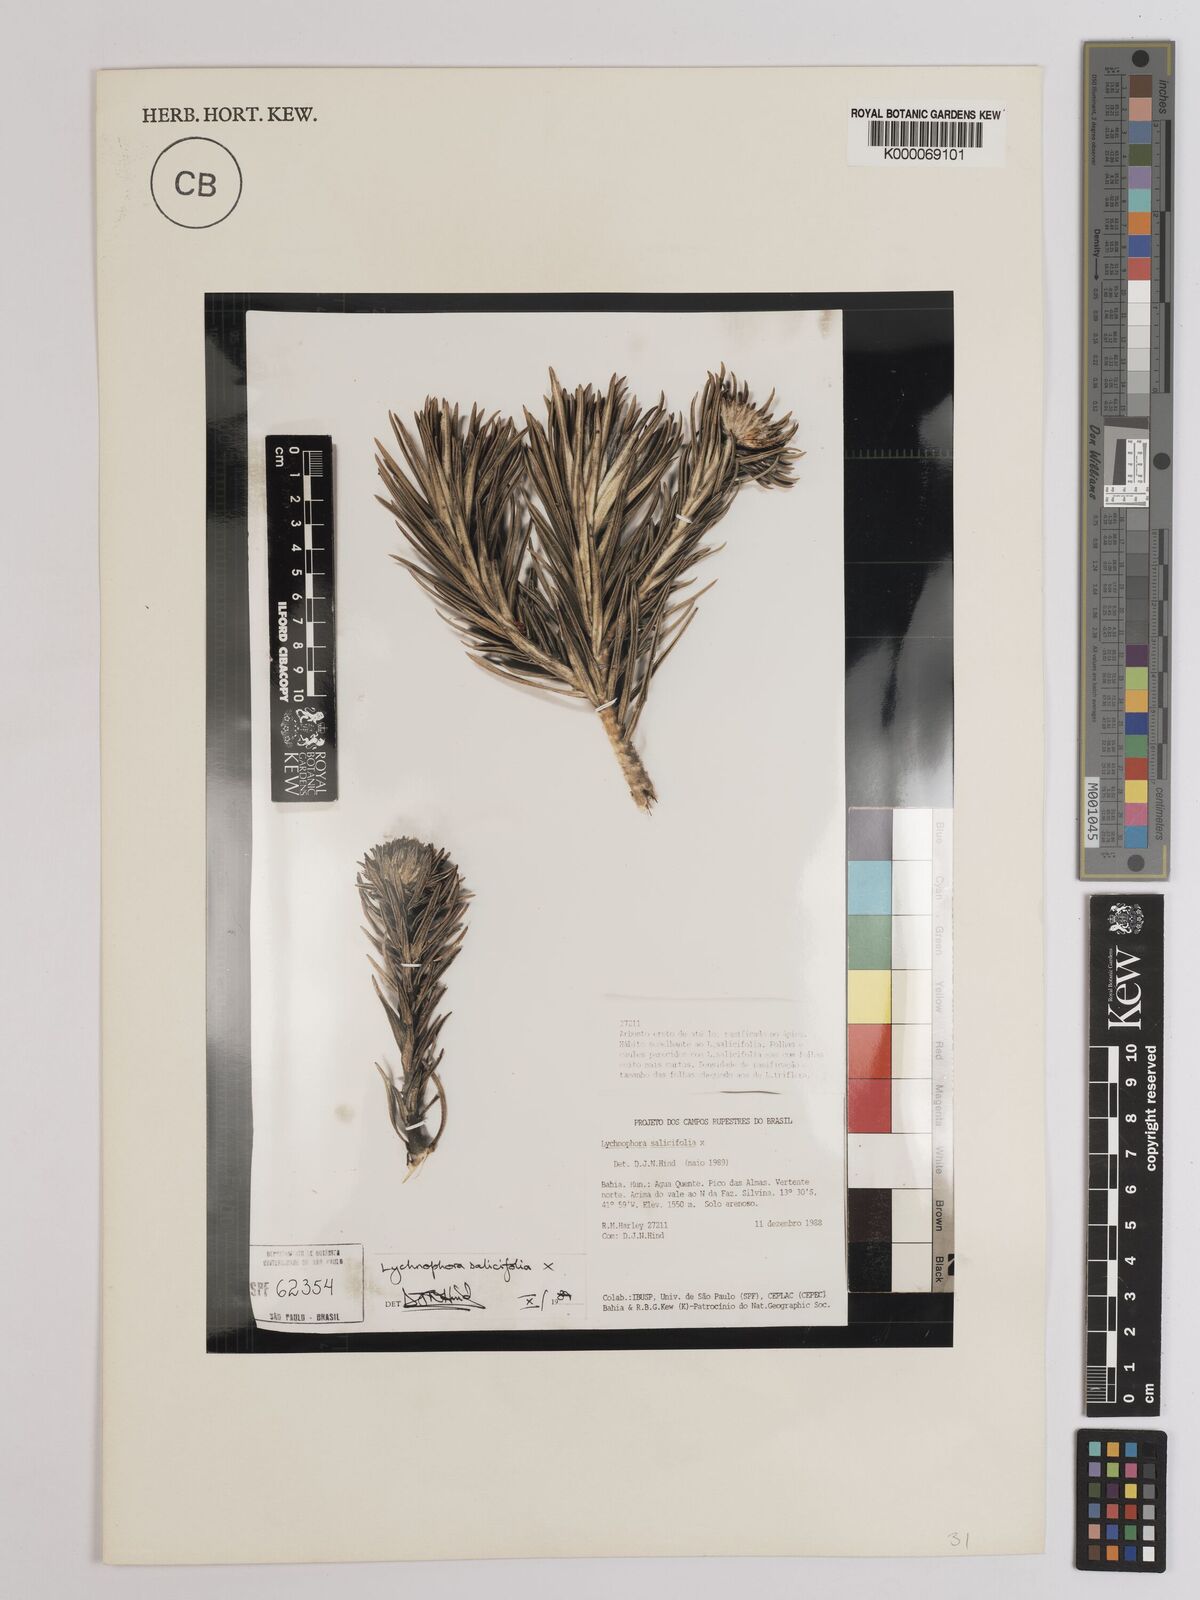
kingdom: Plantae
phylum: Tracheophyta
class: Magnoliopsida
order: Asterales
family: Asteraceae
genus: Lychnophora
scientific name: Lychnophora salicifolia
